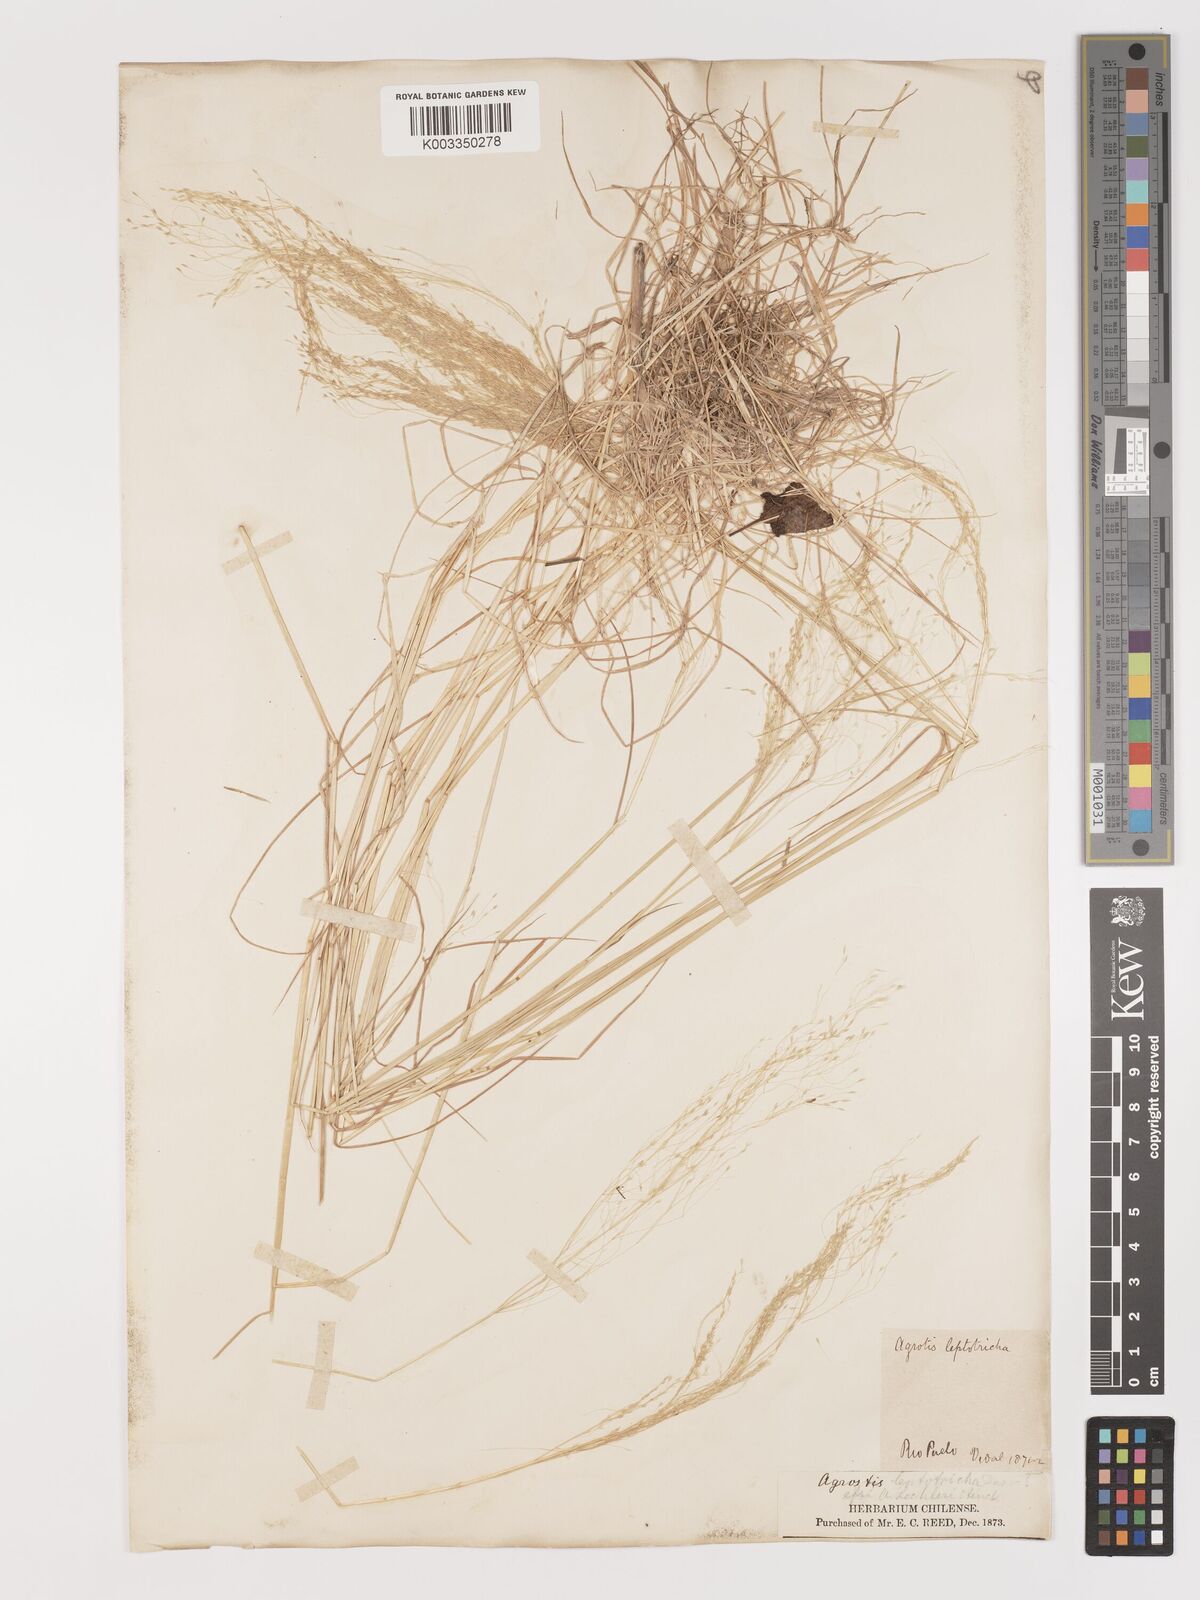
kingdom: Plantae
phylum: Tracheophyta
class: Liliopsida
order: Poales
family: Poaceae
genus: Agrostis
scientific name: Agrostis leptotricha
